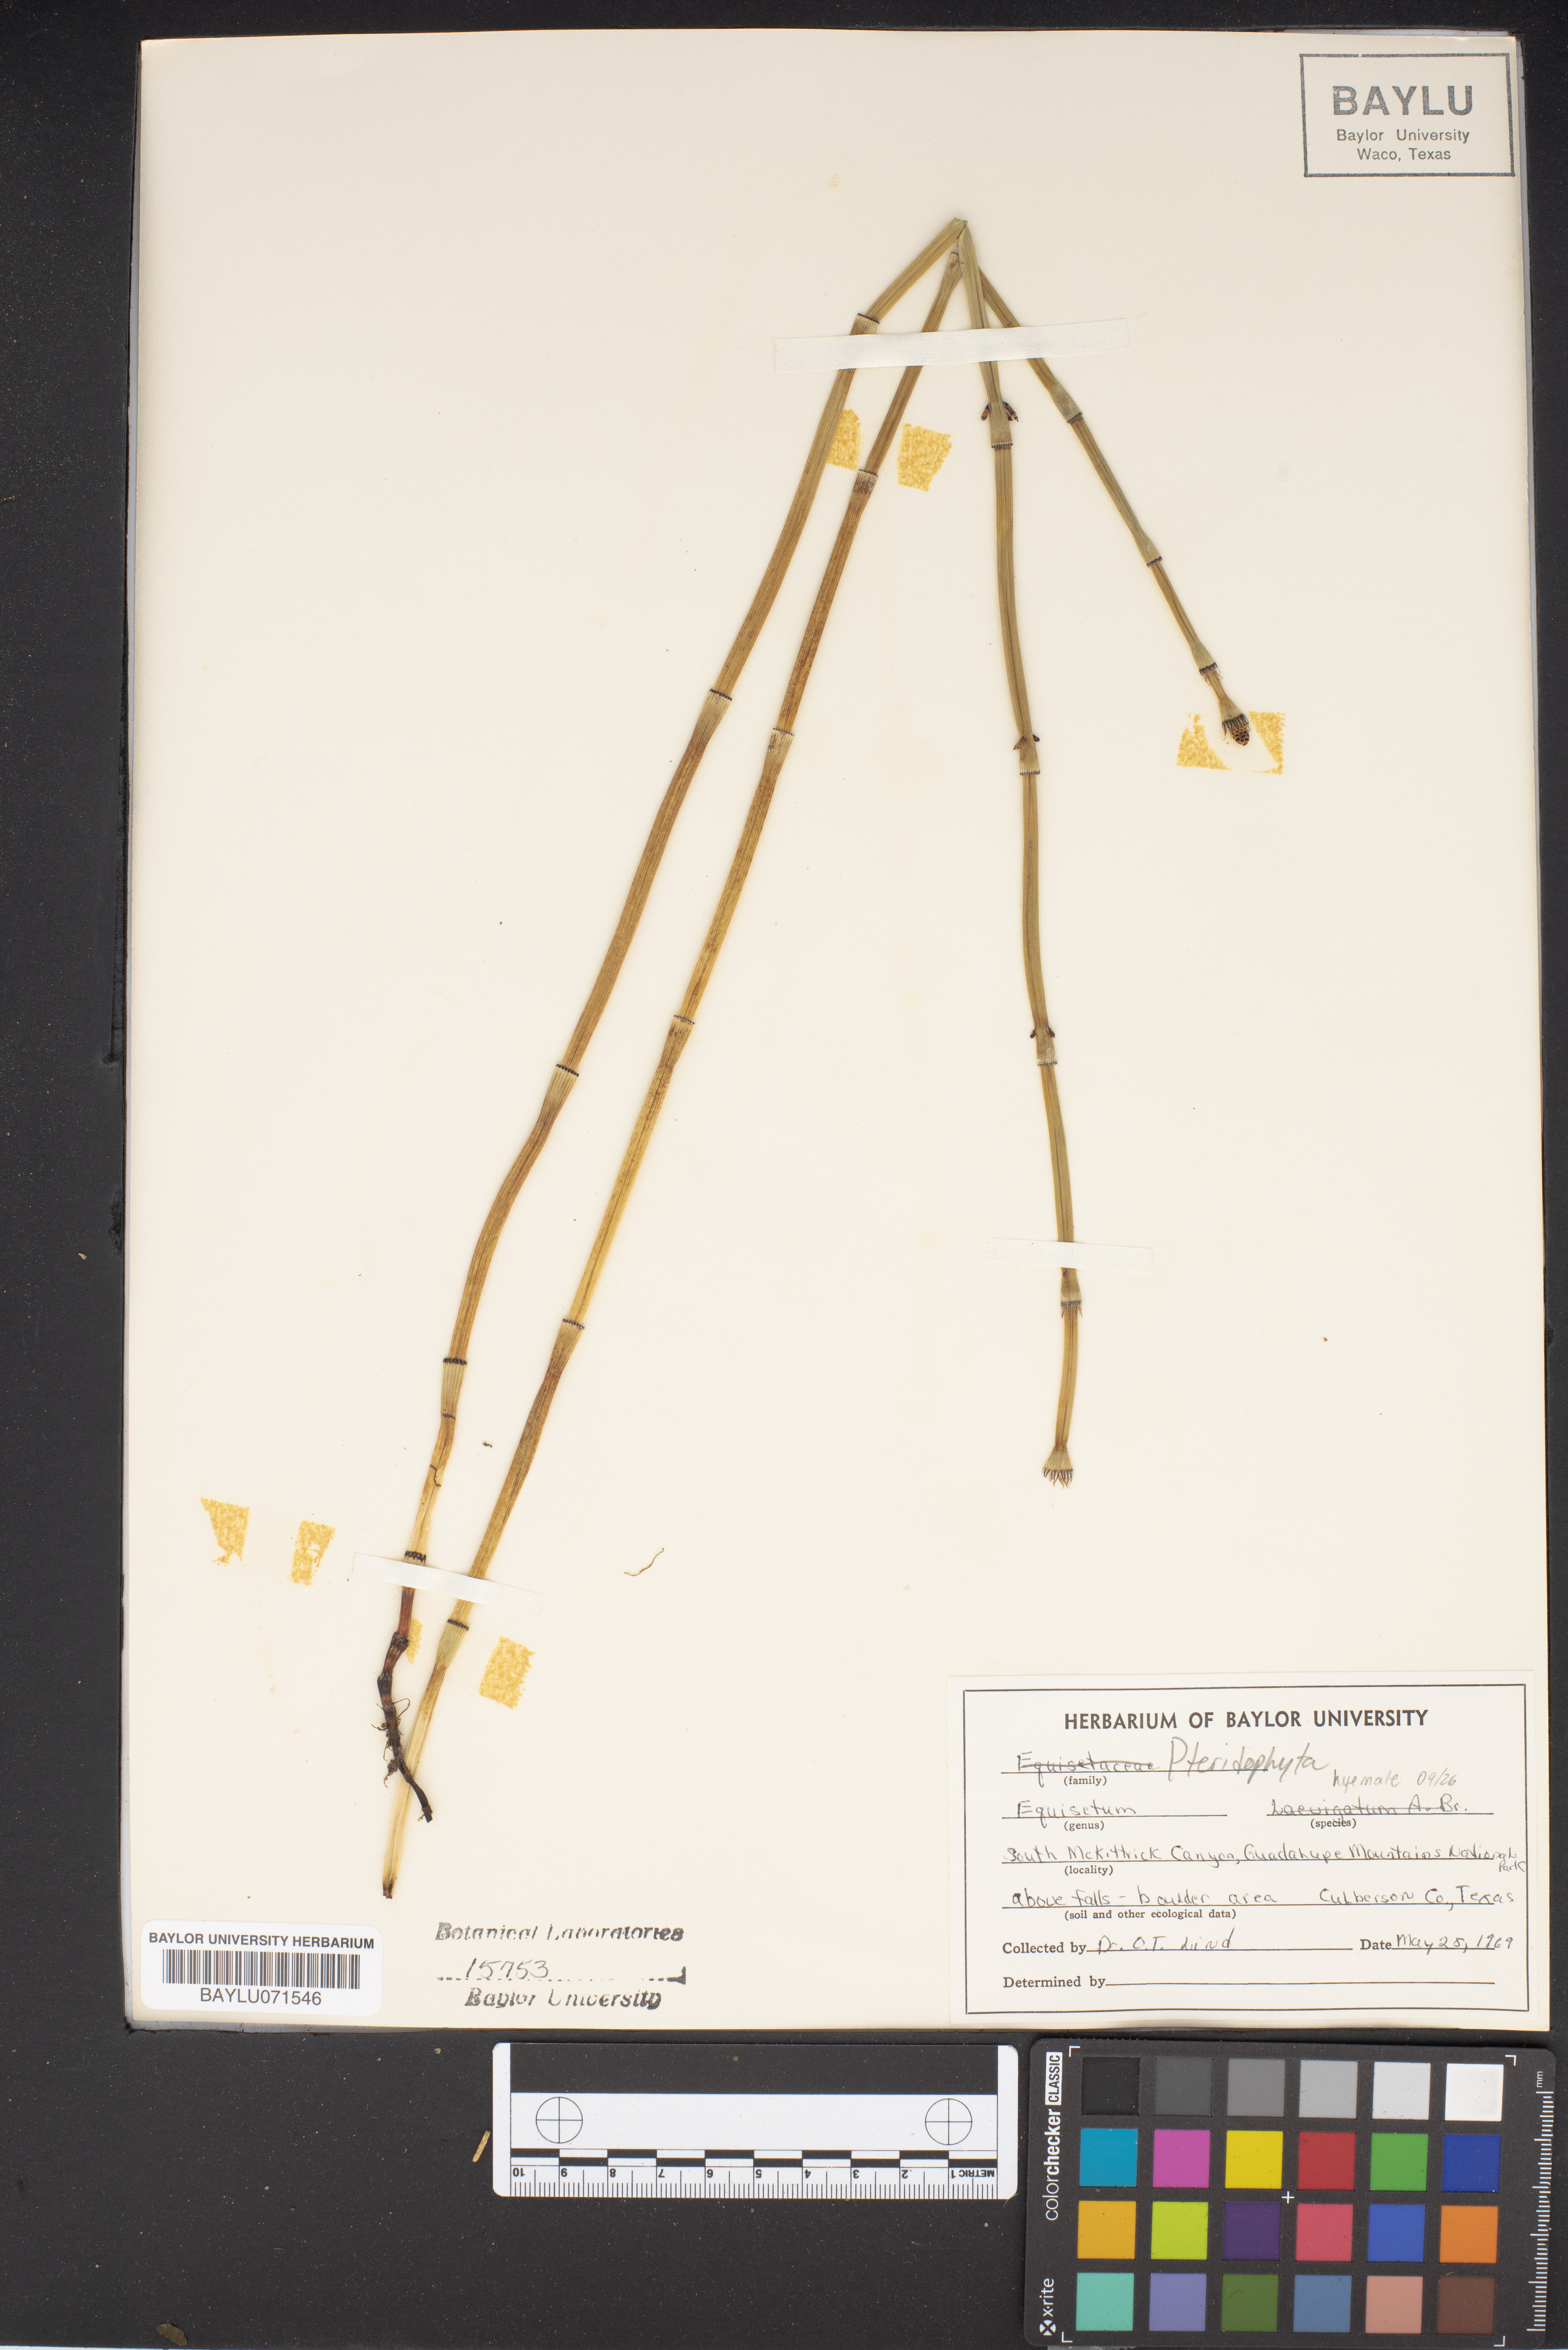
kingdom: Plantae
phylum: Tracheophyta
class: Polypodiopsida
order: Equisetales
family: Equisetaceae
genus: Equisetum
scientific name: Equisetum hyemale
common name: Rough horsetail
